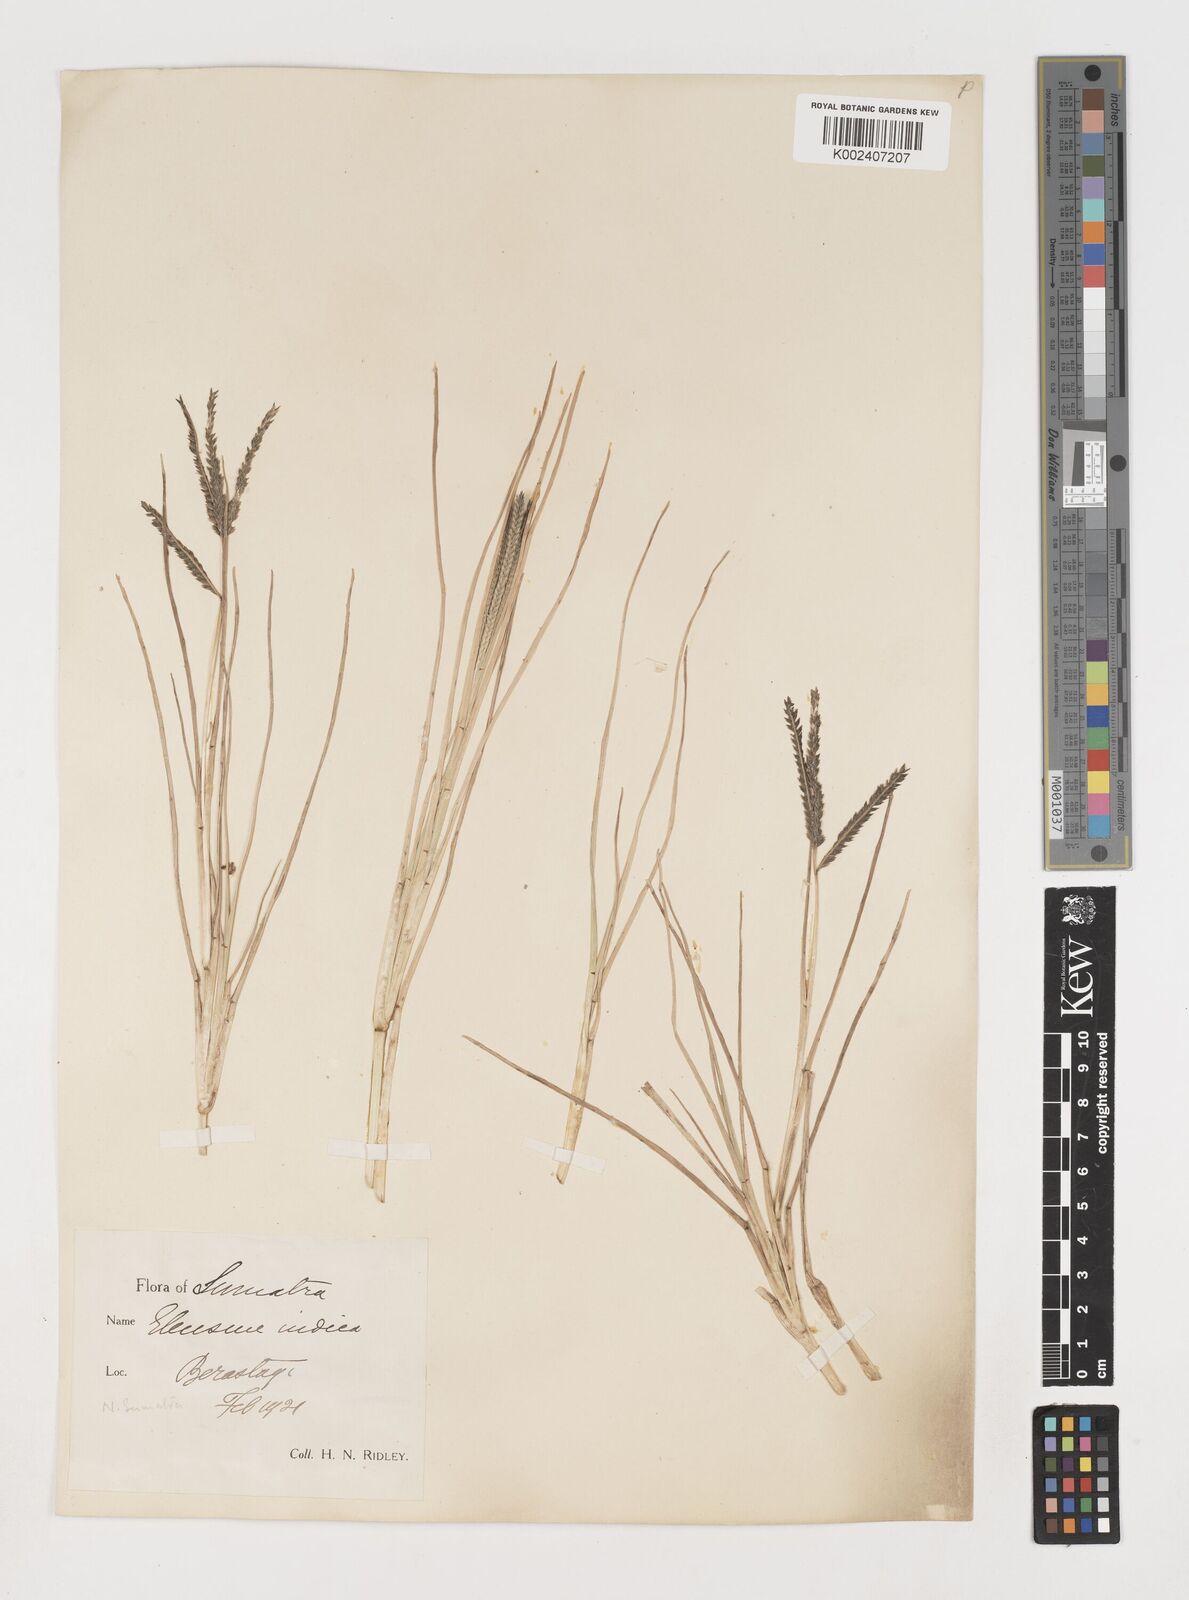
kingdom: Plantae
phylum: Tracheophyta
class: Liliopsida
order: Poales
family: Poaceae
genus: Eleusine
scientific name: Eleusine indica
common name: Yard-grass
